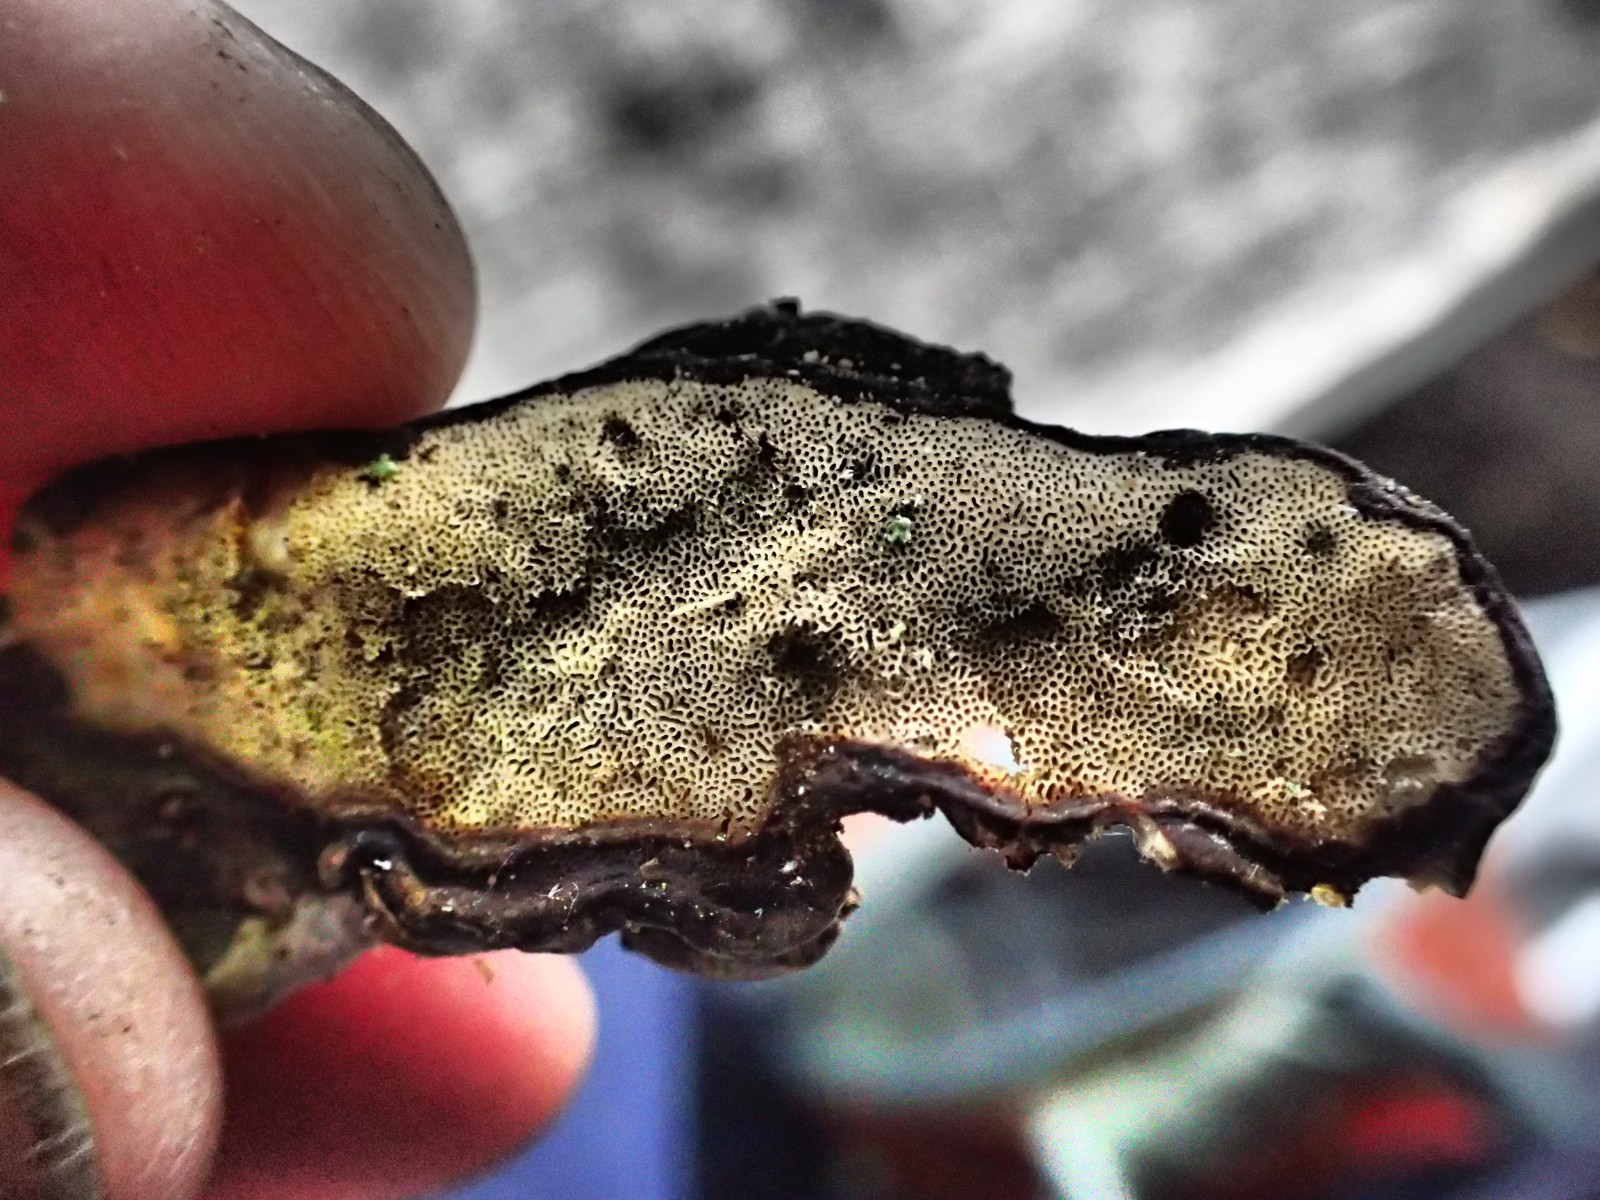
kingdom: Fungi
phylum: Basidiomycota
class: Agaricomycetes
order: Polyporales
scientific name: Polyporales
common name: poresvampordenen
